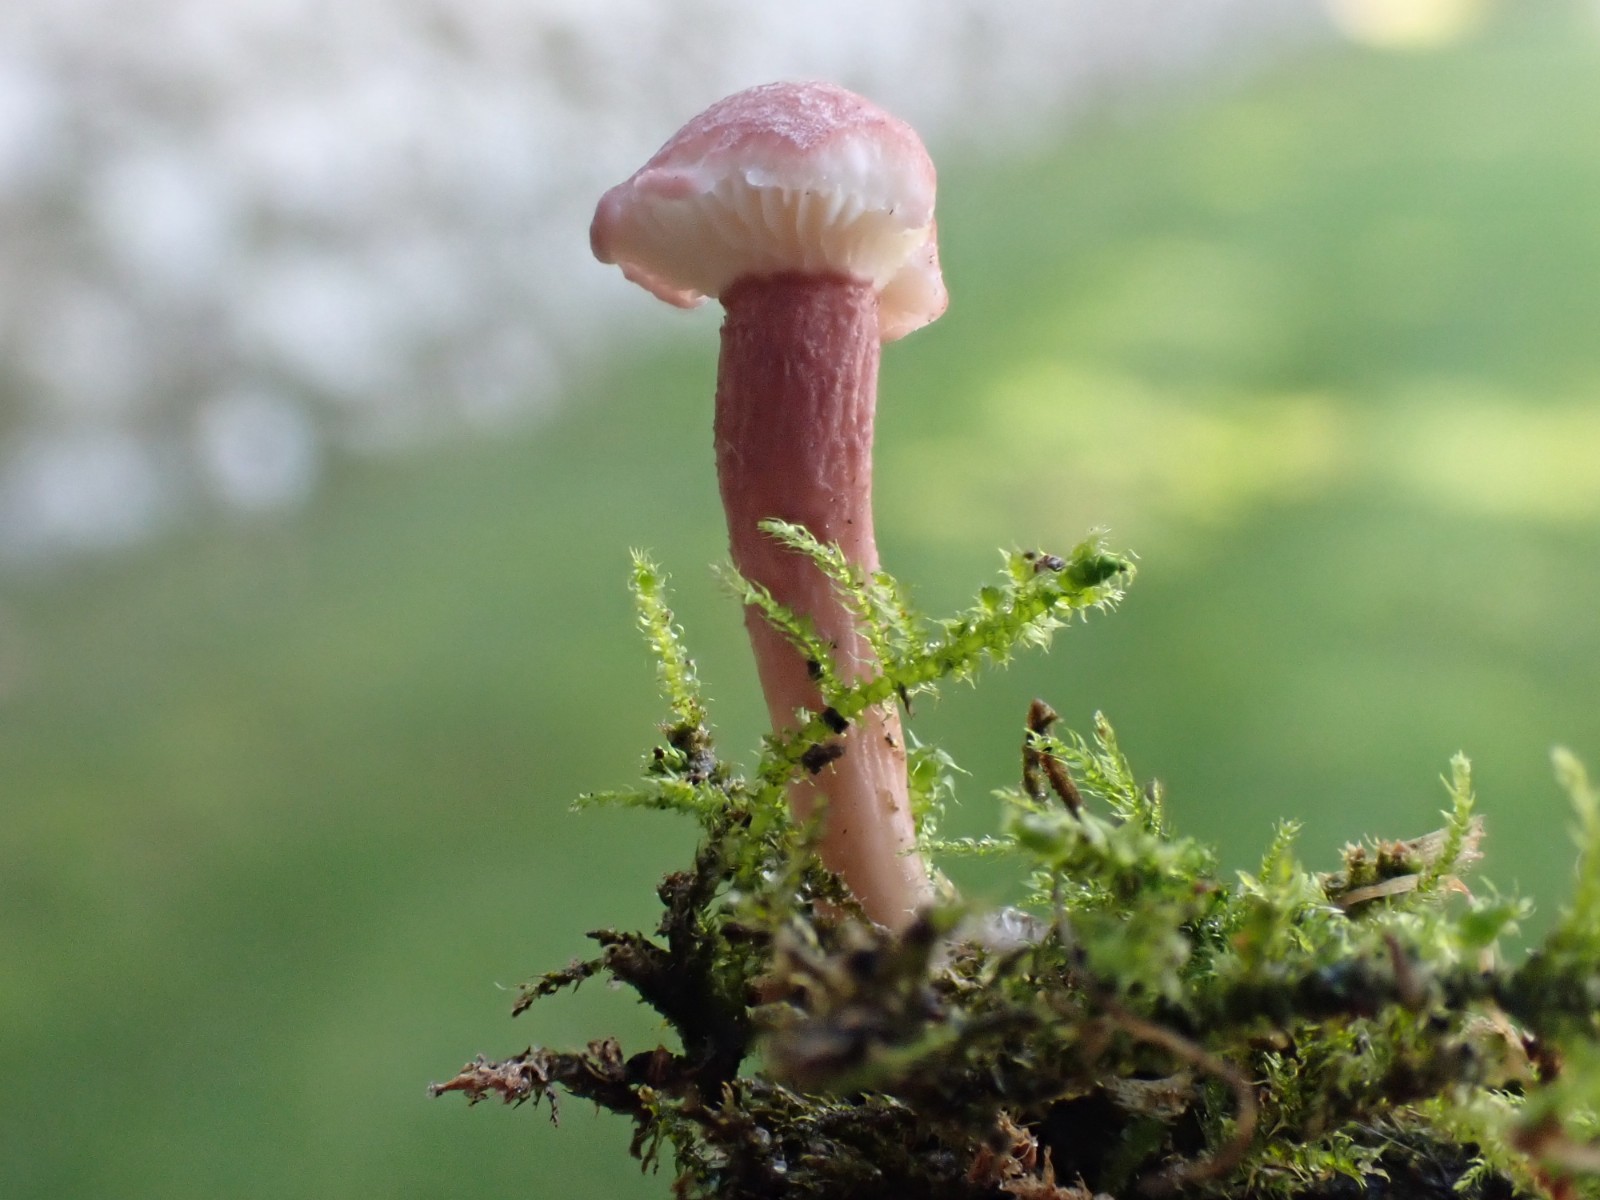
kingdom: Fungi
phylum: Basidiomycota
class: Agaricomycetes
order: Agaricales
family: Lyophyllaceae
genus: Calocybe
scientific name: Calocybe carnea
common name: rosa fagerhat
